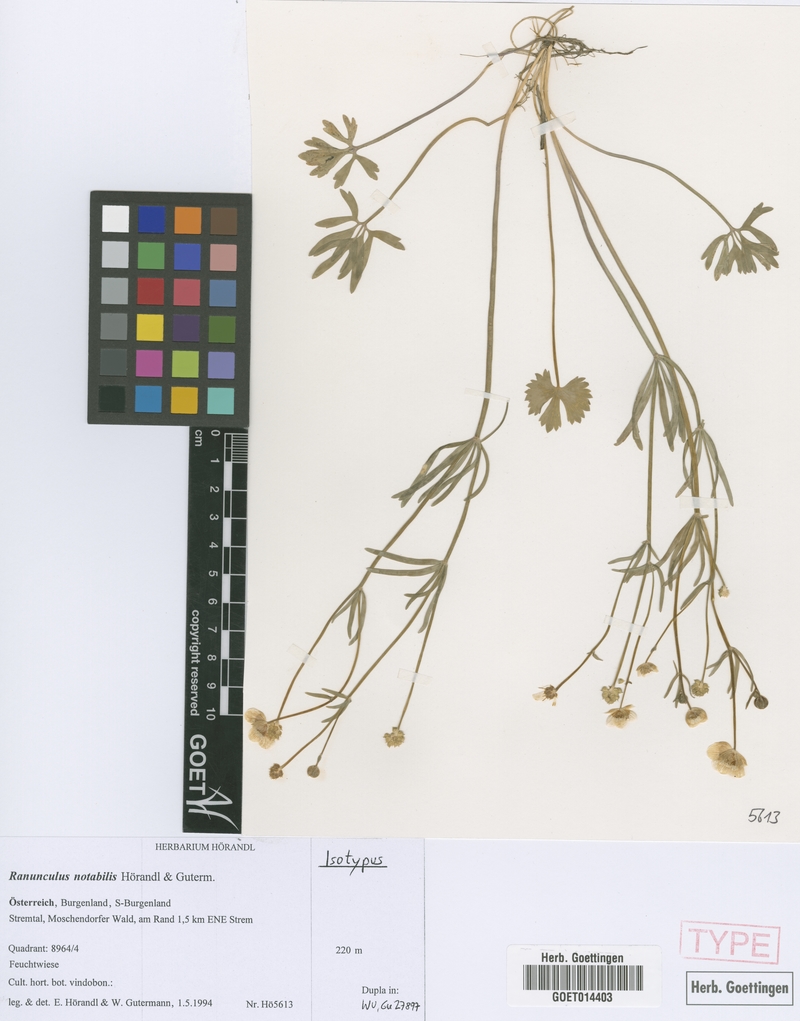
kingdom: Plantae
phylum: Tracheophyta
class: Magnoliopsida
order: Ranunculales
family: Ranunculaceae
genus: Ranunculus
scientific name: Ranunculus notabilis
